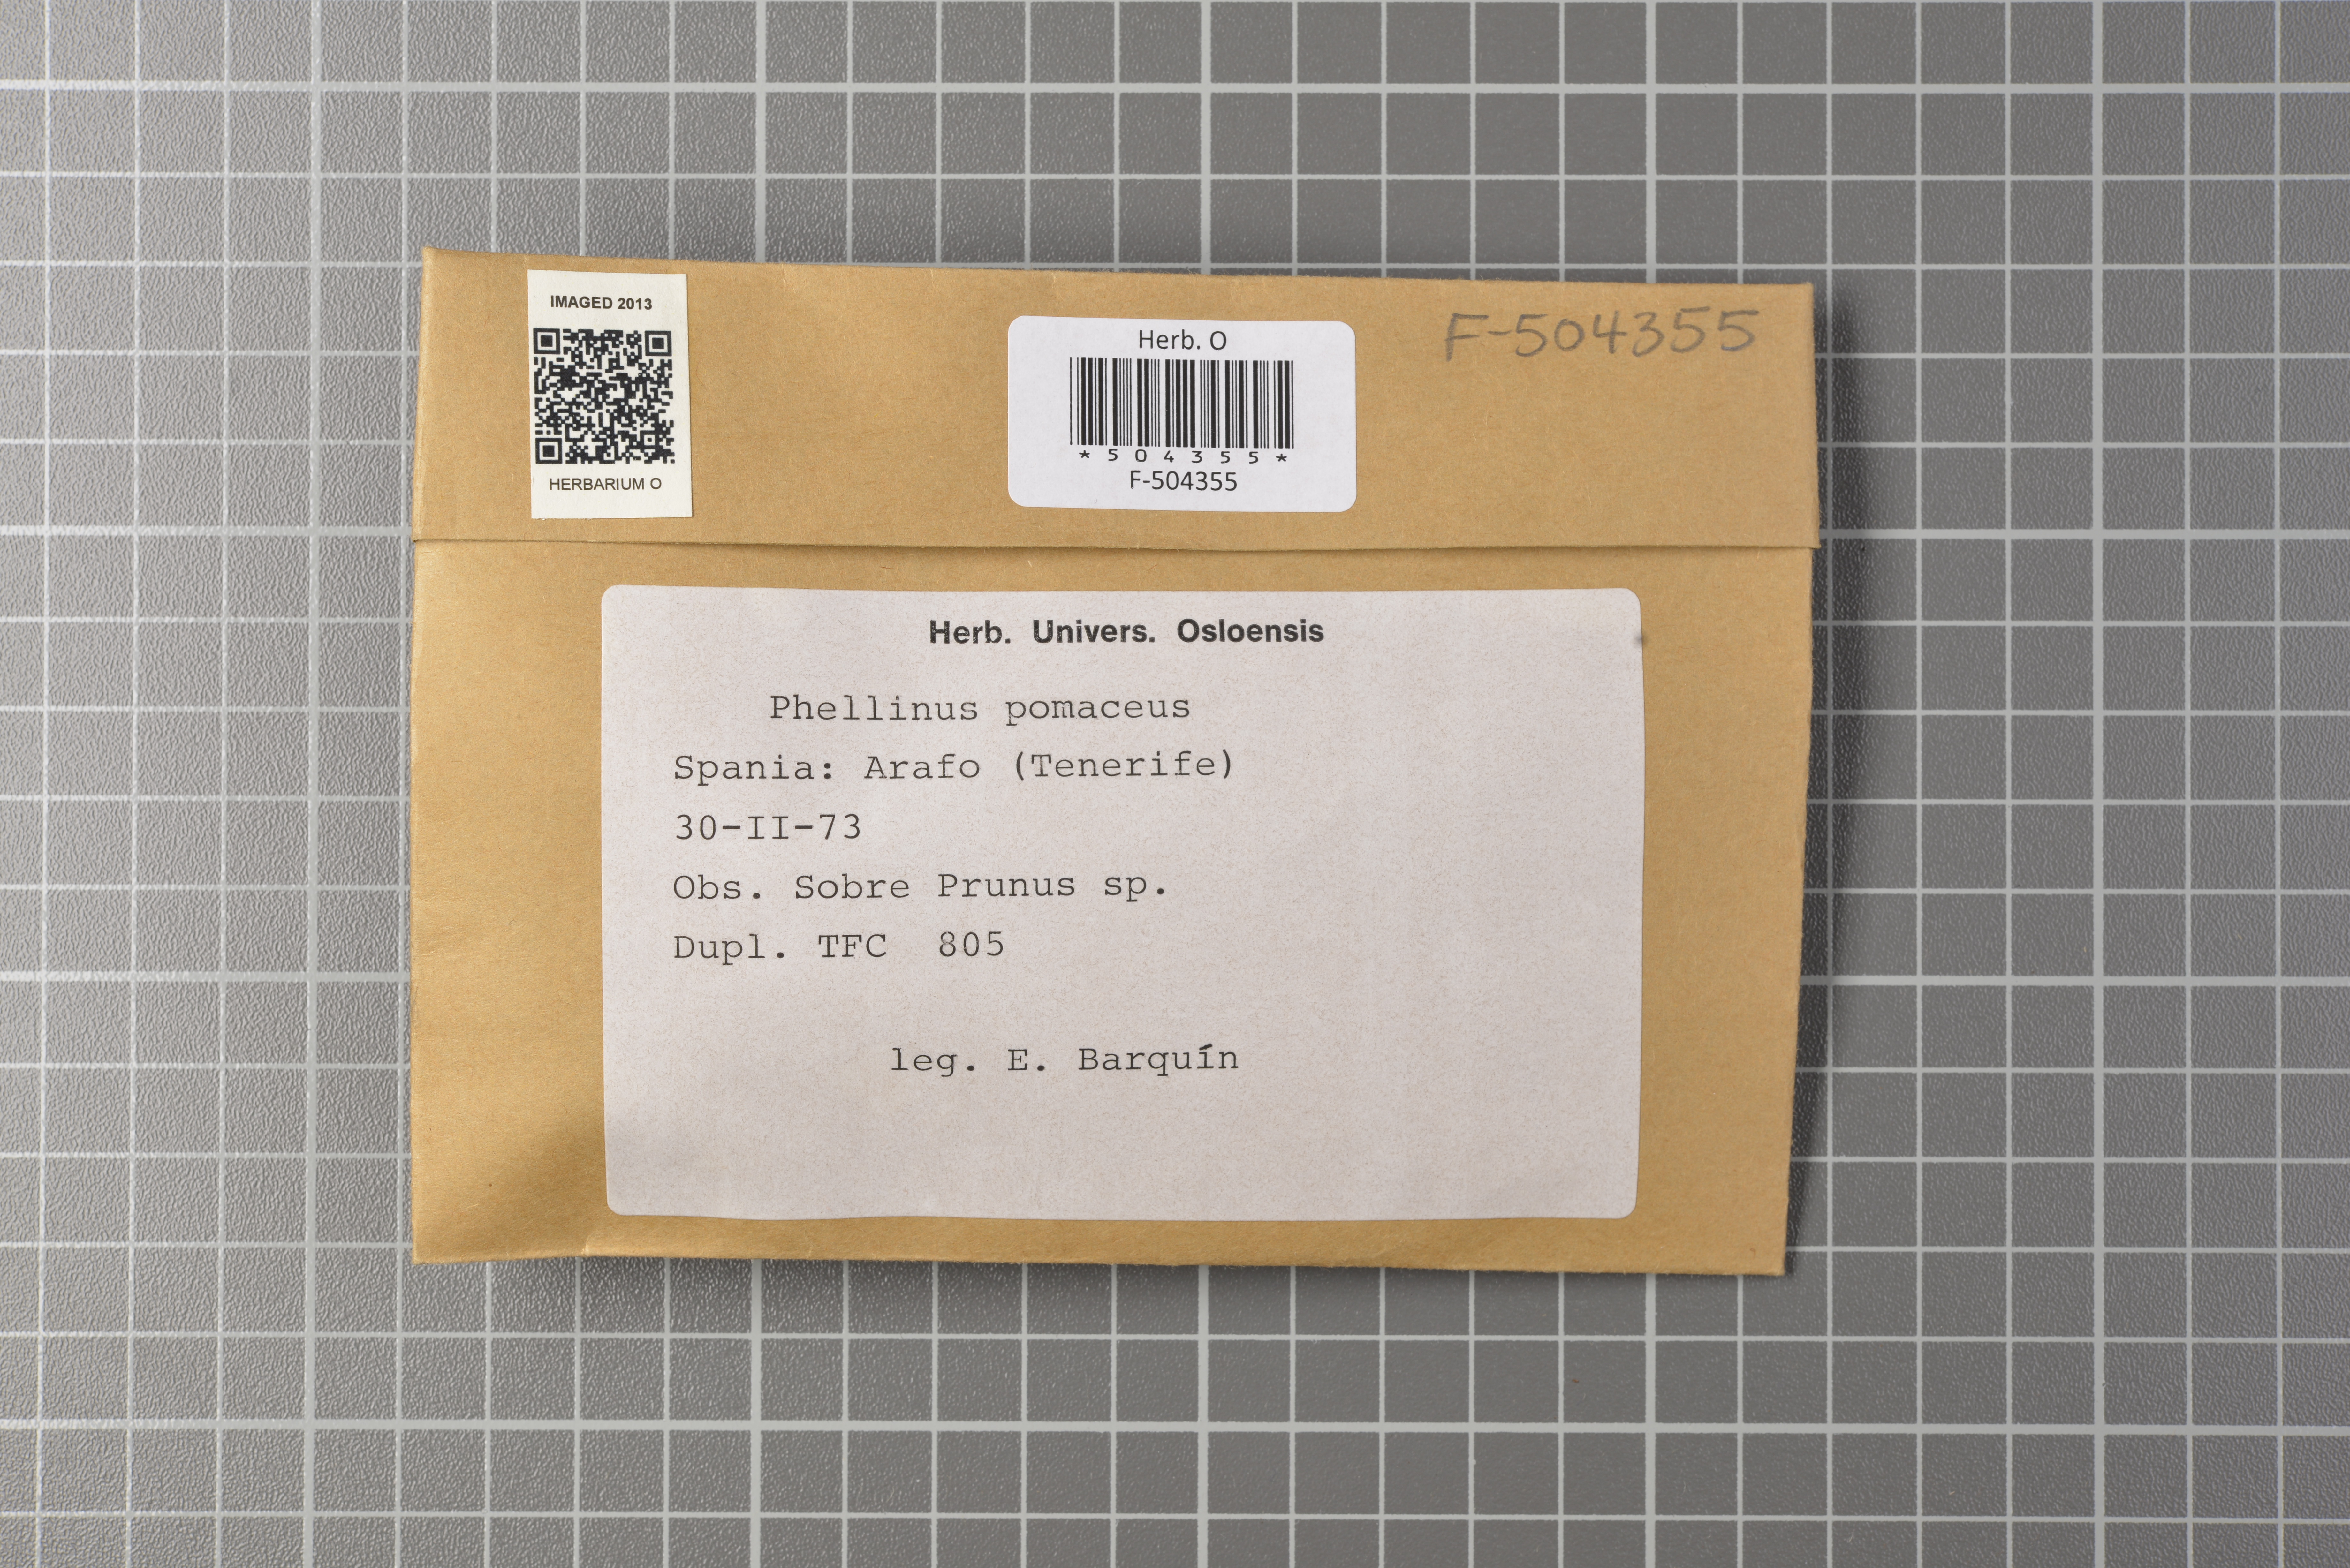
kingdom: Fungi
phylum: Basidiomycota
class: Agaricomycetes
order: Hymenochaetales
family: Hymenochaetaceae
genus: Phellinus
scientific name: Phellinus pomaceus
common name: Cushion bracket
